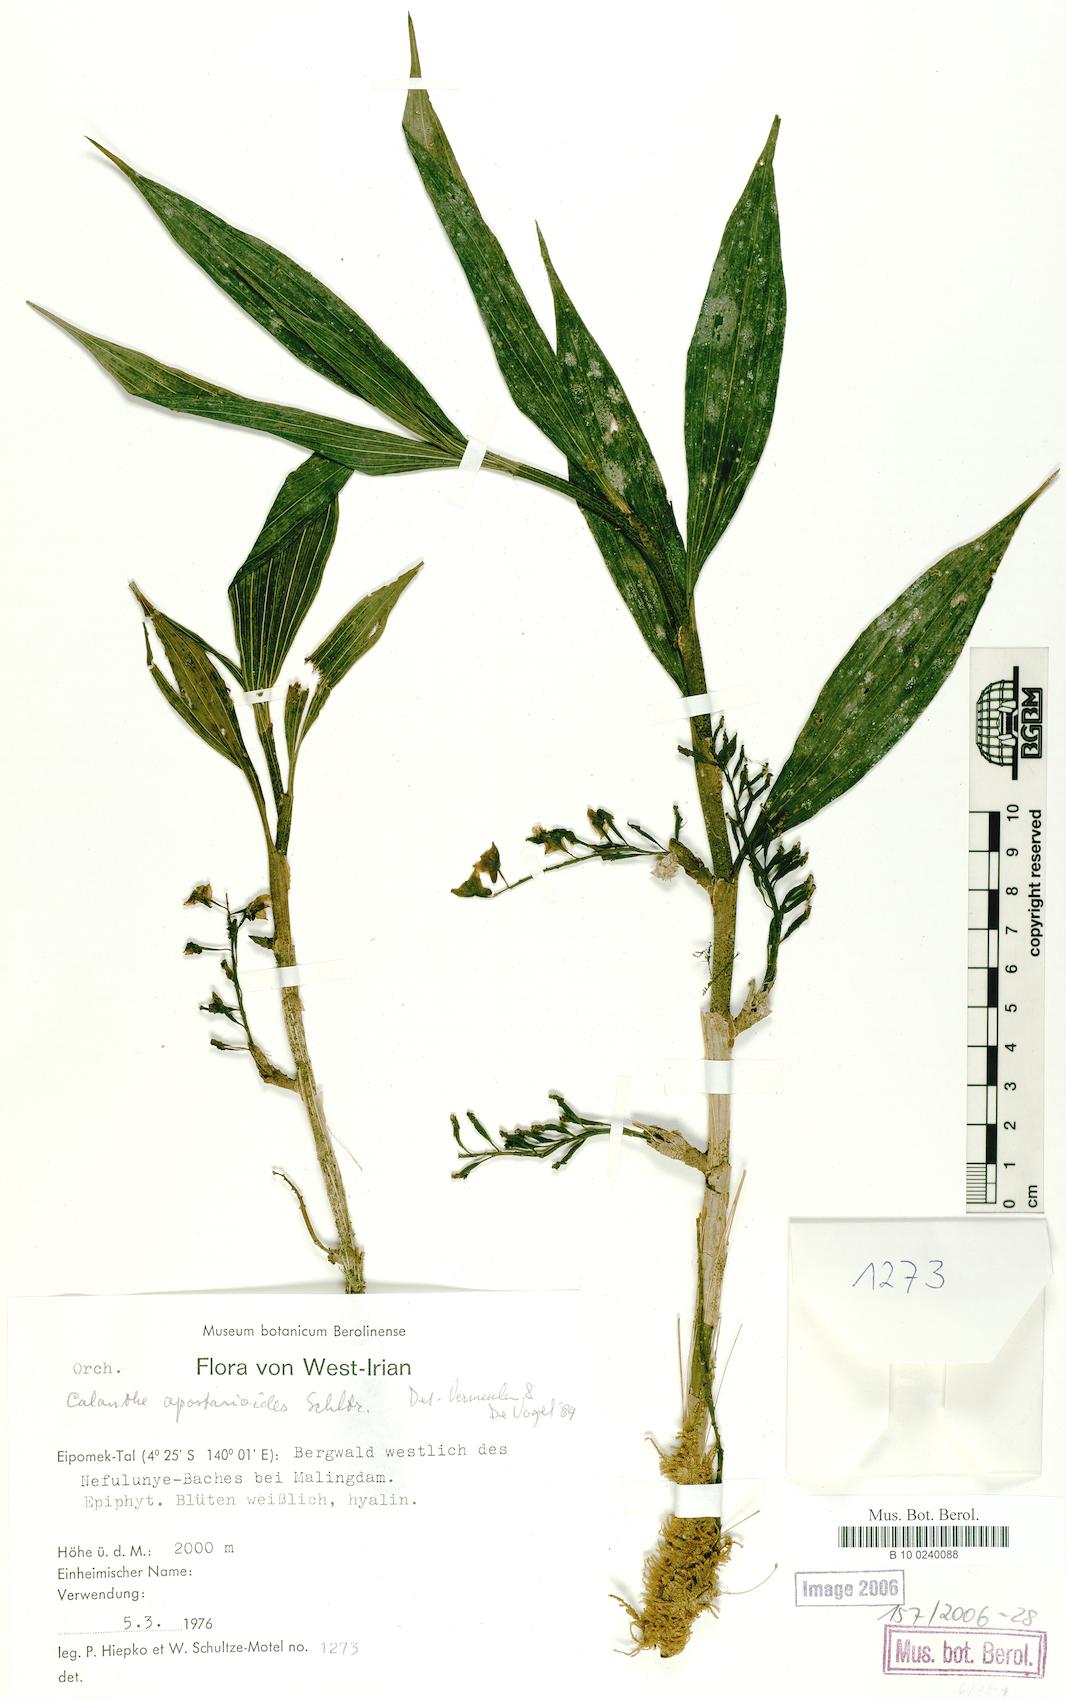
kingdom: Plantae
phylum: Tracheophyta
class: Liliopsida
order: Asparagales
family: Orchidaceae
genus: Calanthe
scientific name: Calanthe caulescens
